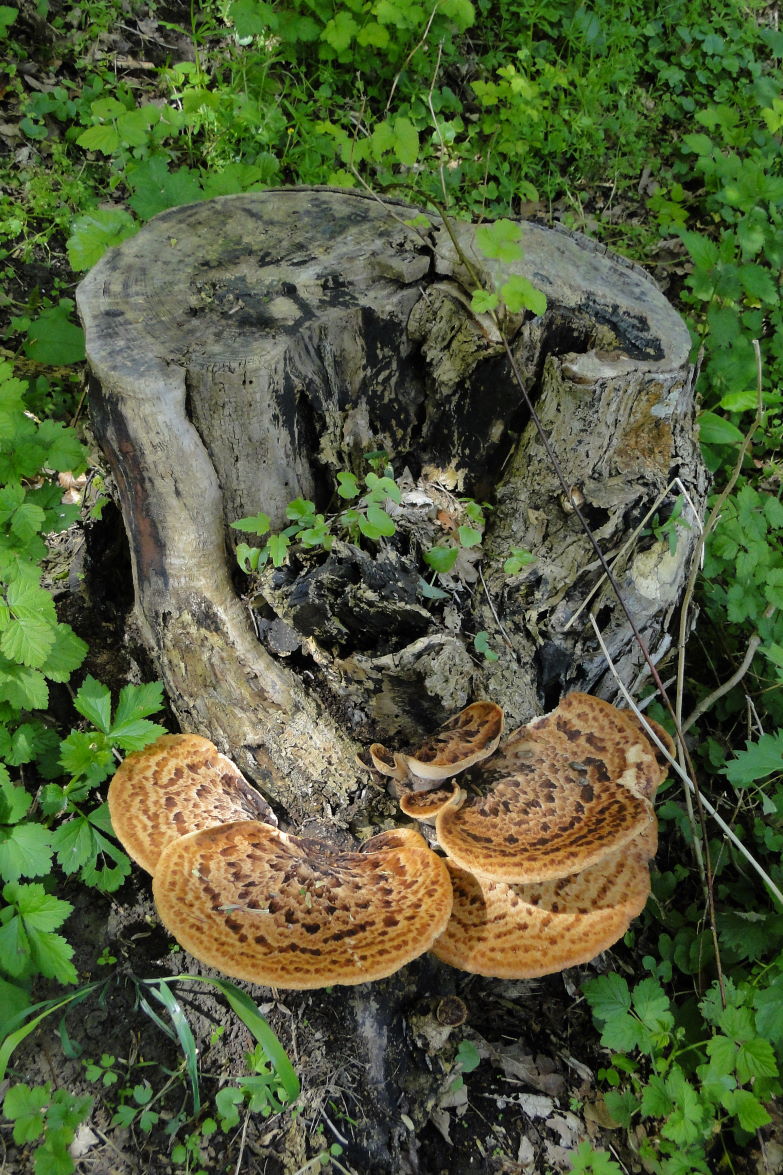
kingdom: Fungi
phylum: Basidiomycota
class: Agaricomycetes
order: Polyporales
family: Polyporaceae
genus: Cerioporus
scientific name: Cerioporus squamosus
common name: skællet stilkporesvamp
